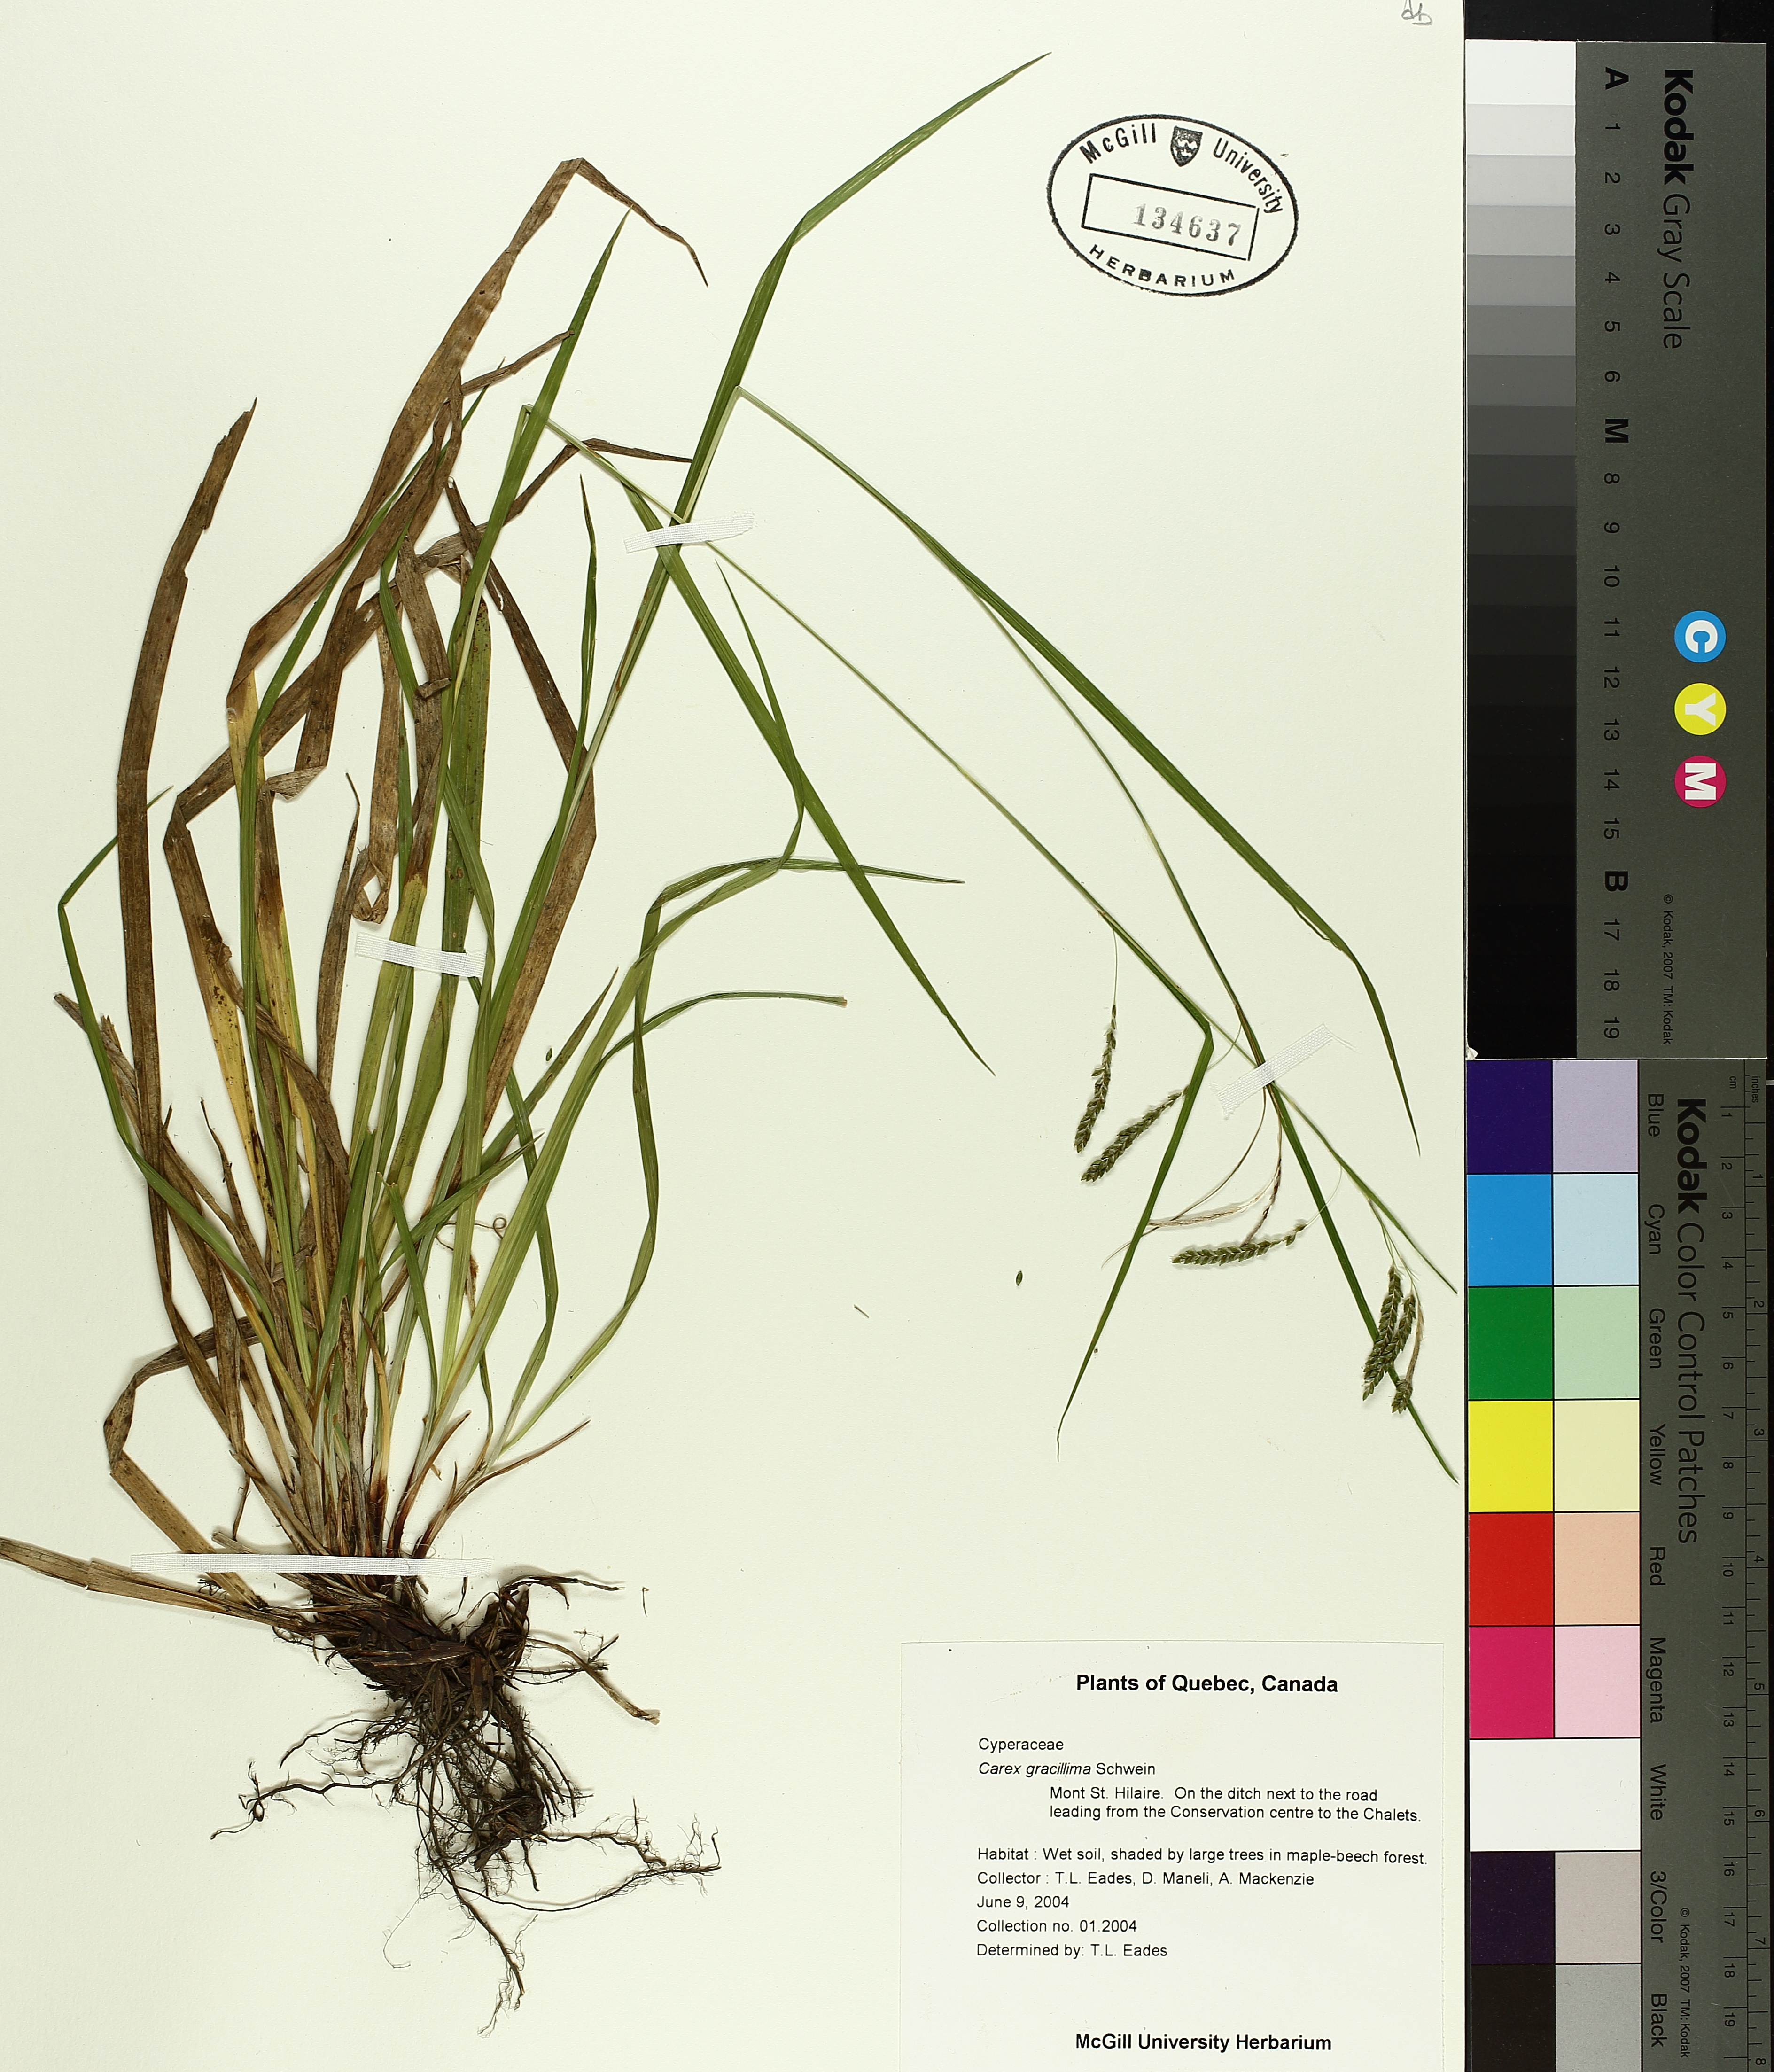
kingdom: Plantae
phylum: Tracheophyta
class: Liliopsida
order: Poales
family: Cyperaceae
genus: Carex
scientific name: Carex gracillima
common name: Graceful sedge
